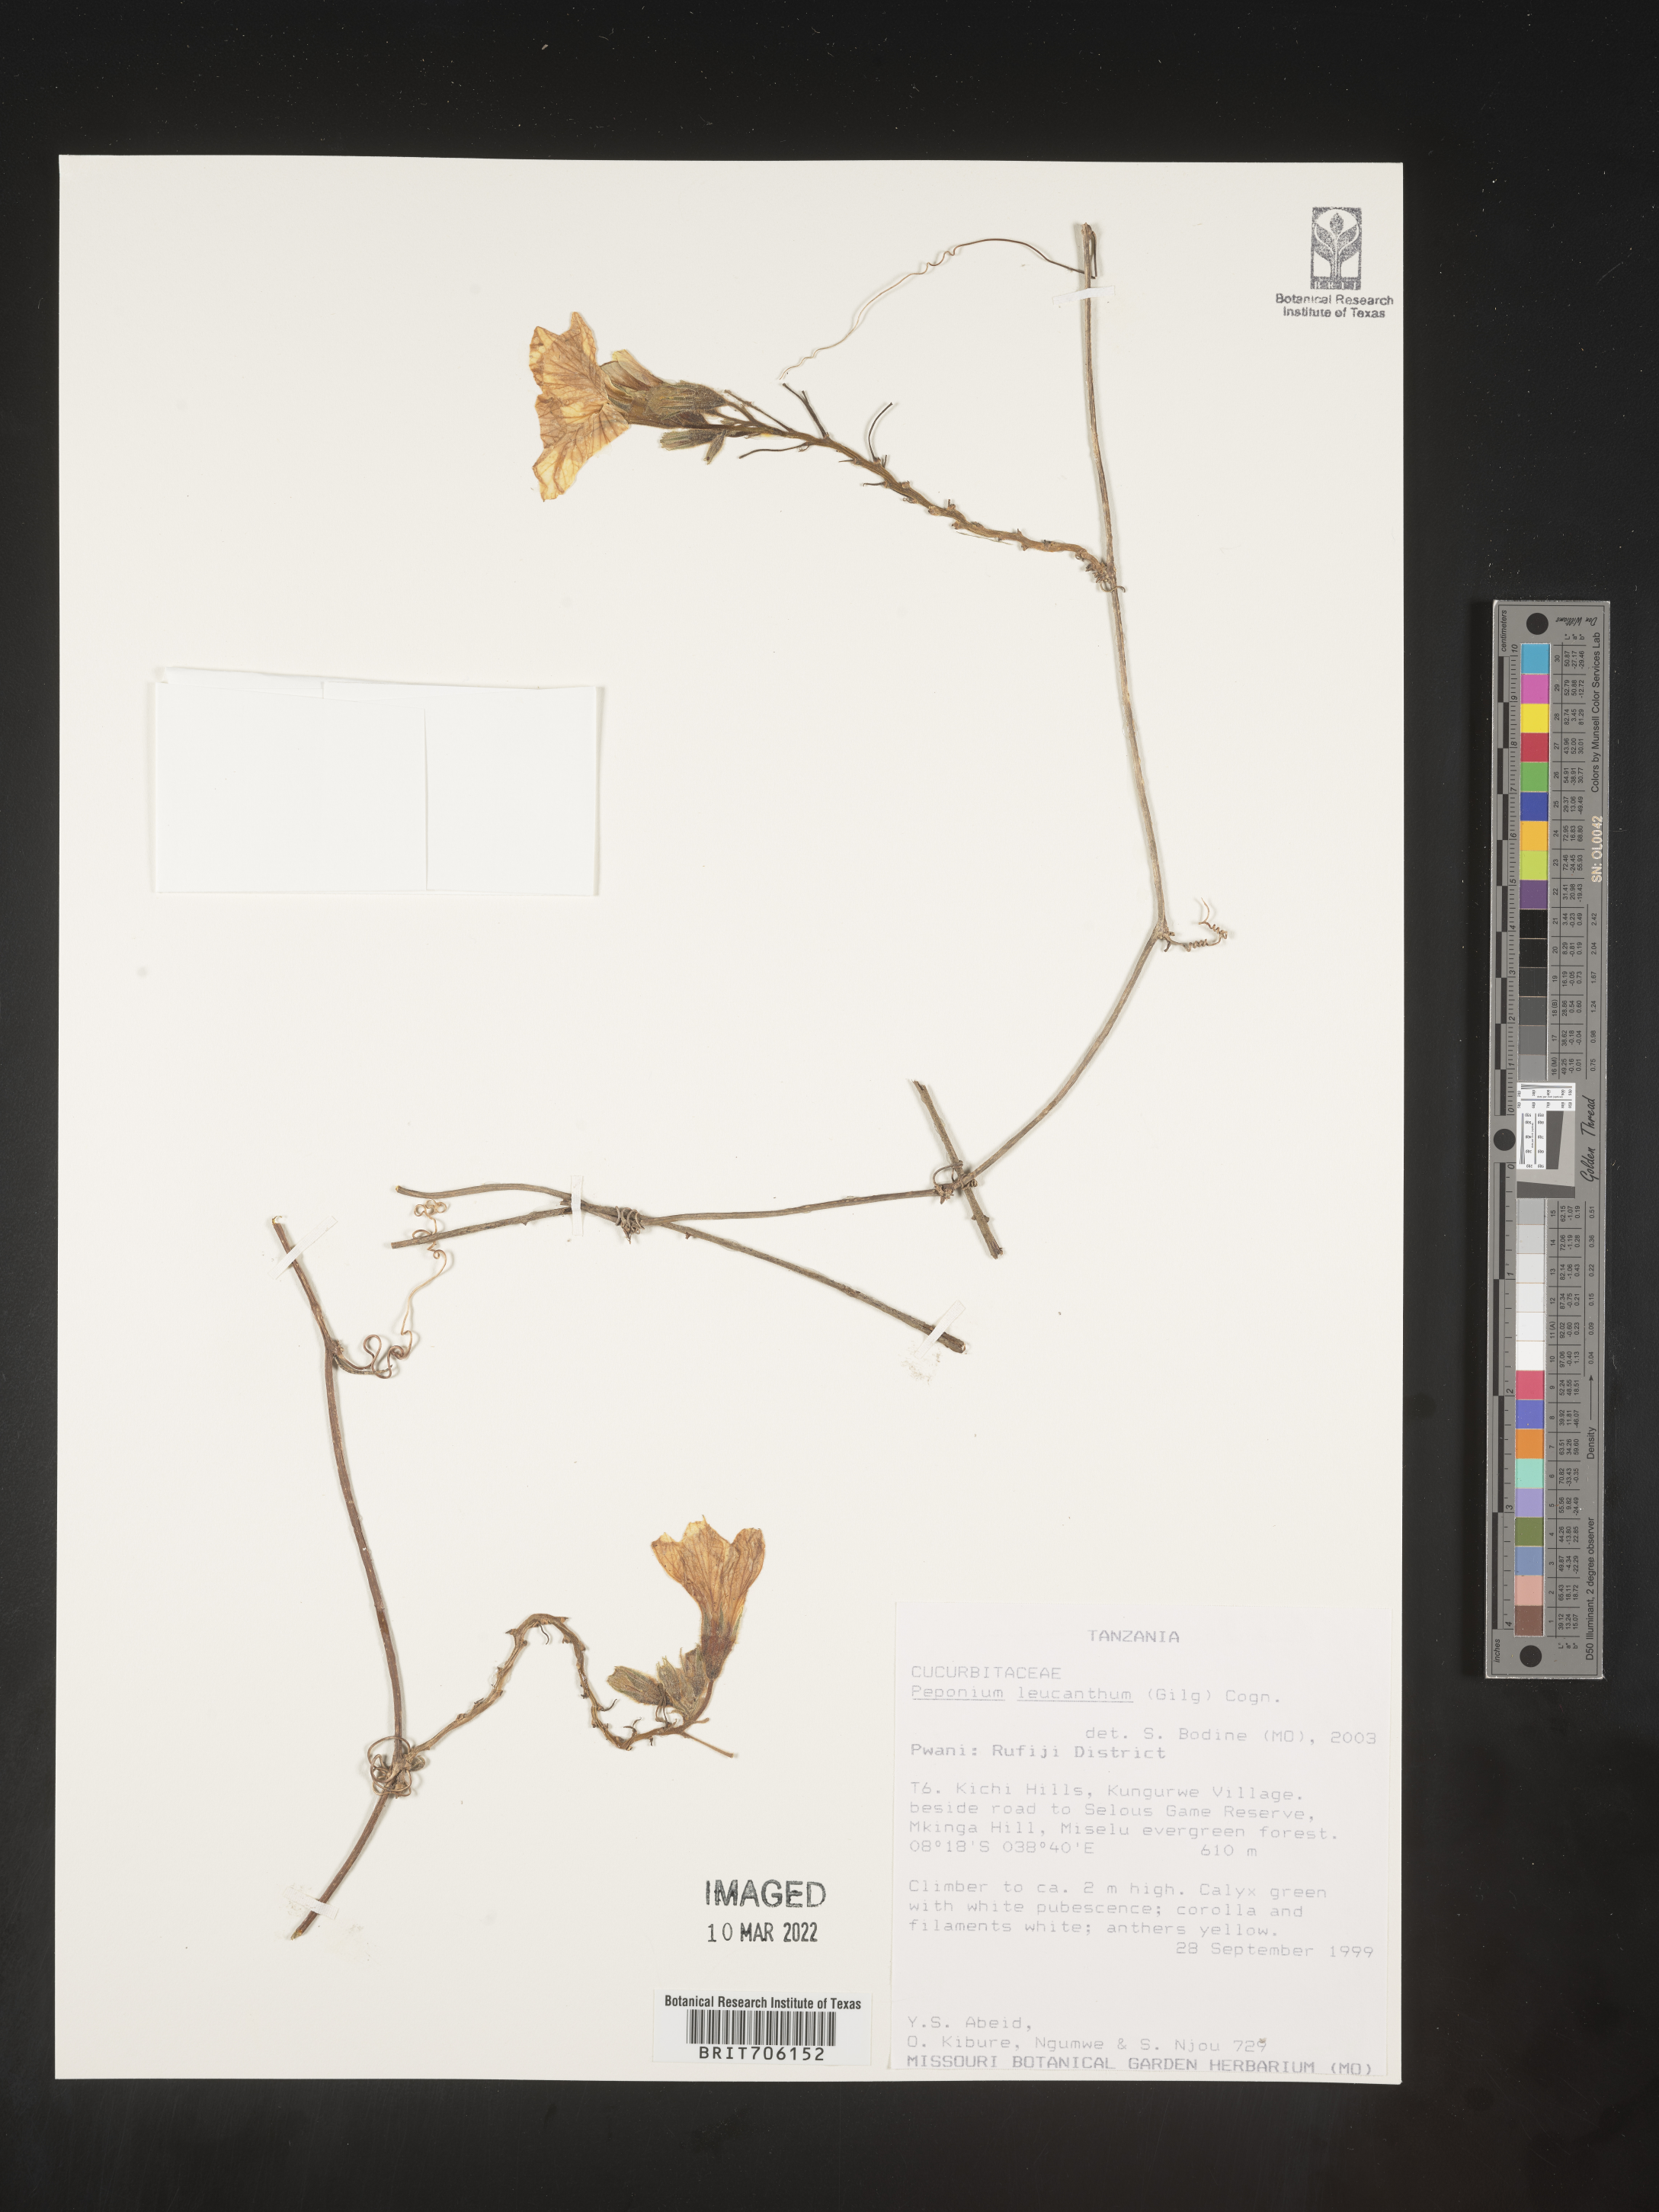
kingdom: Plantae
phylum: Tracheophyta
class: Magnoliopsida
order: Cucurbitales
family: Cucurbitaceae
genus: Peponium
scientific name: Peponium
